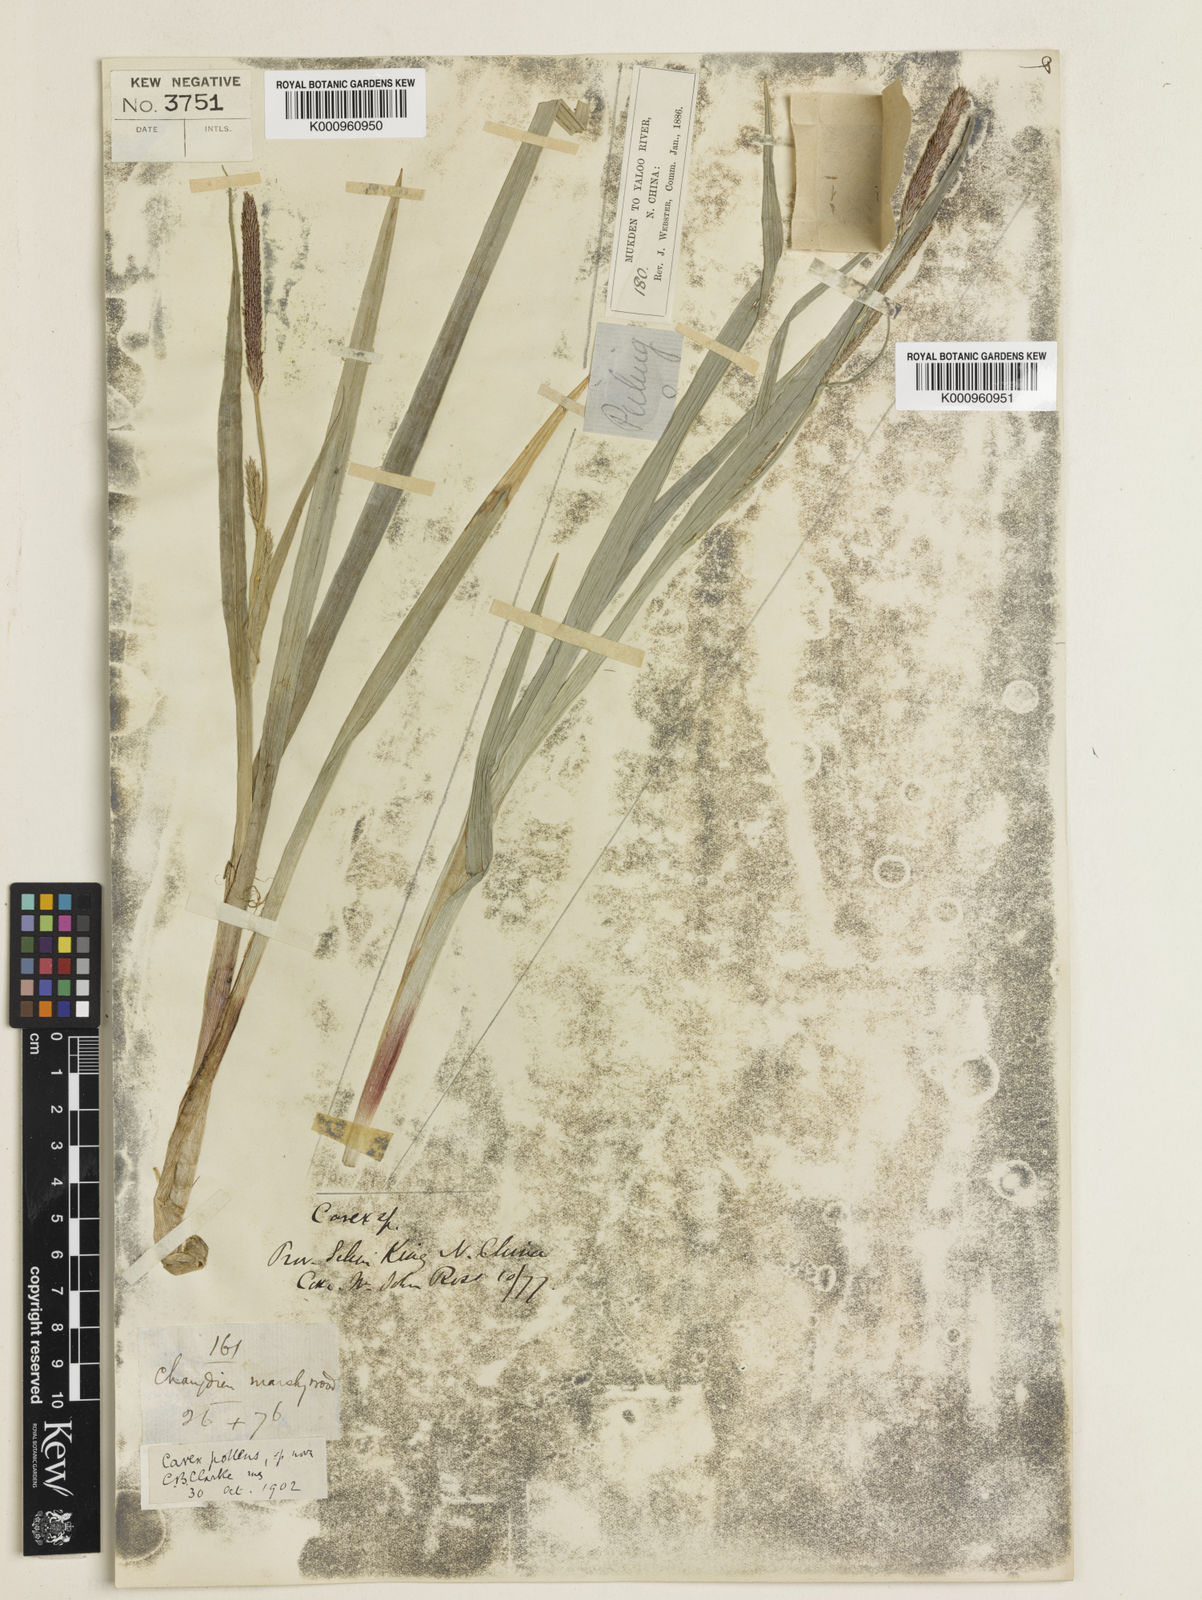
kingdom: Plantae
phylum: Tracheophyta
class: Liliopsida
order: Poales
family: Cyperaceae
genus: Carex
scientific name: Carex dispalata
